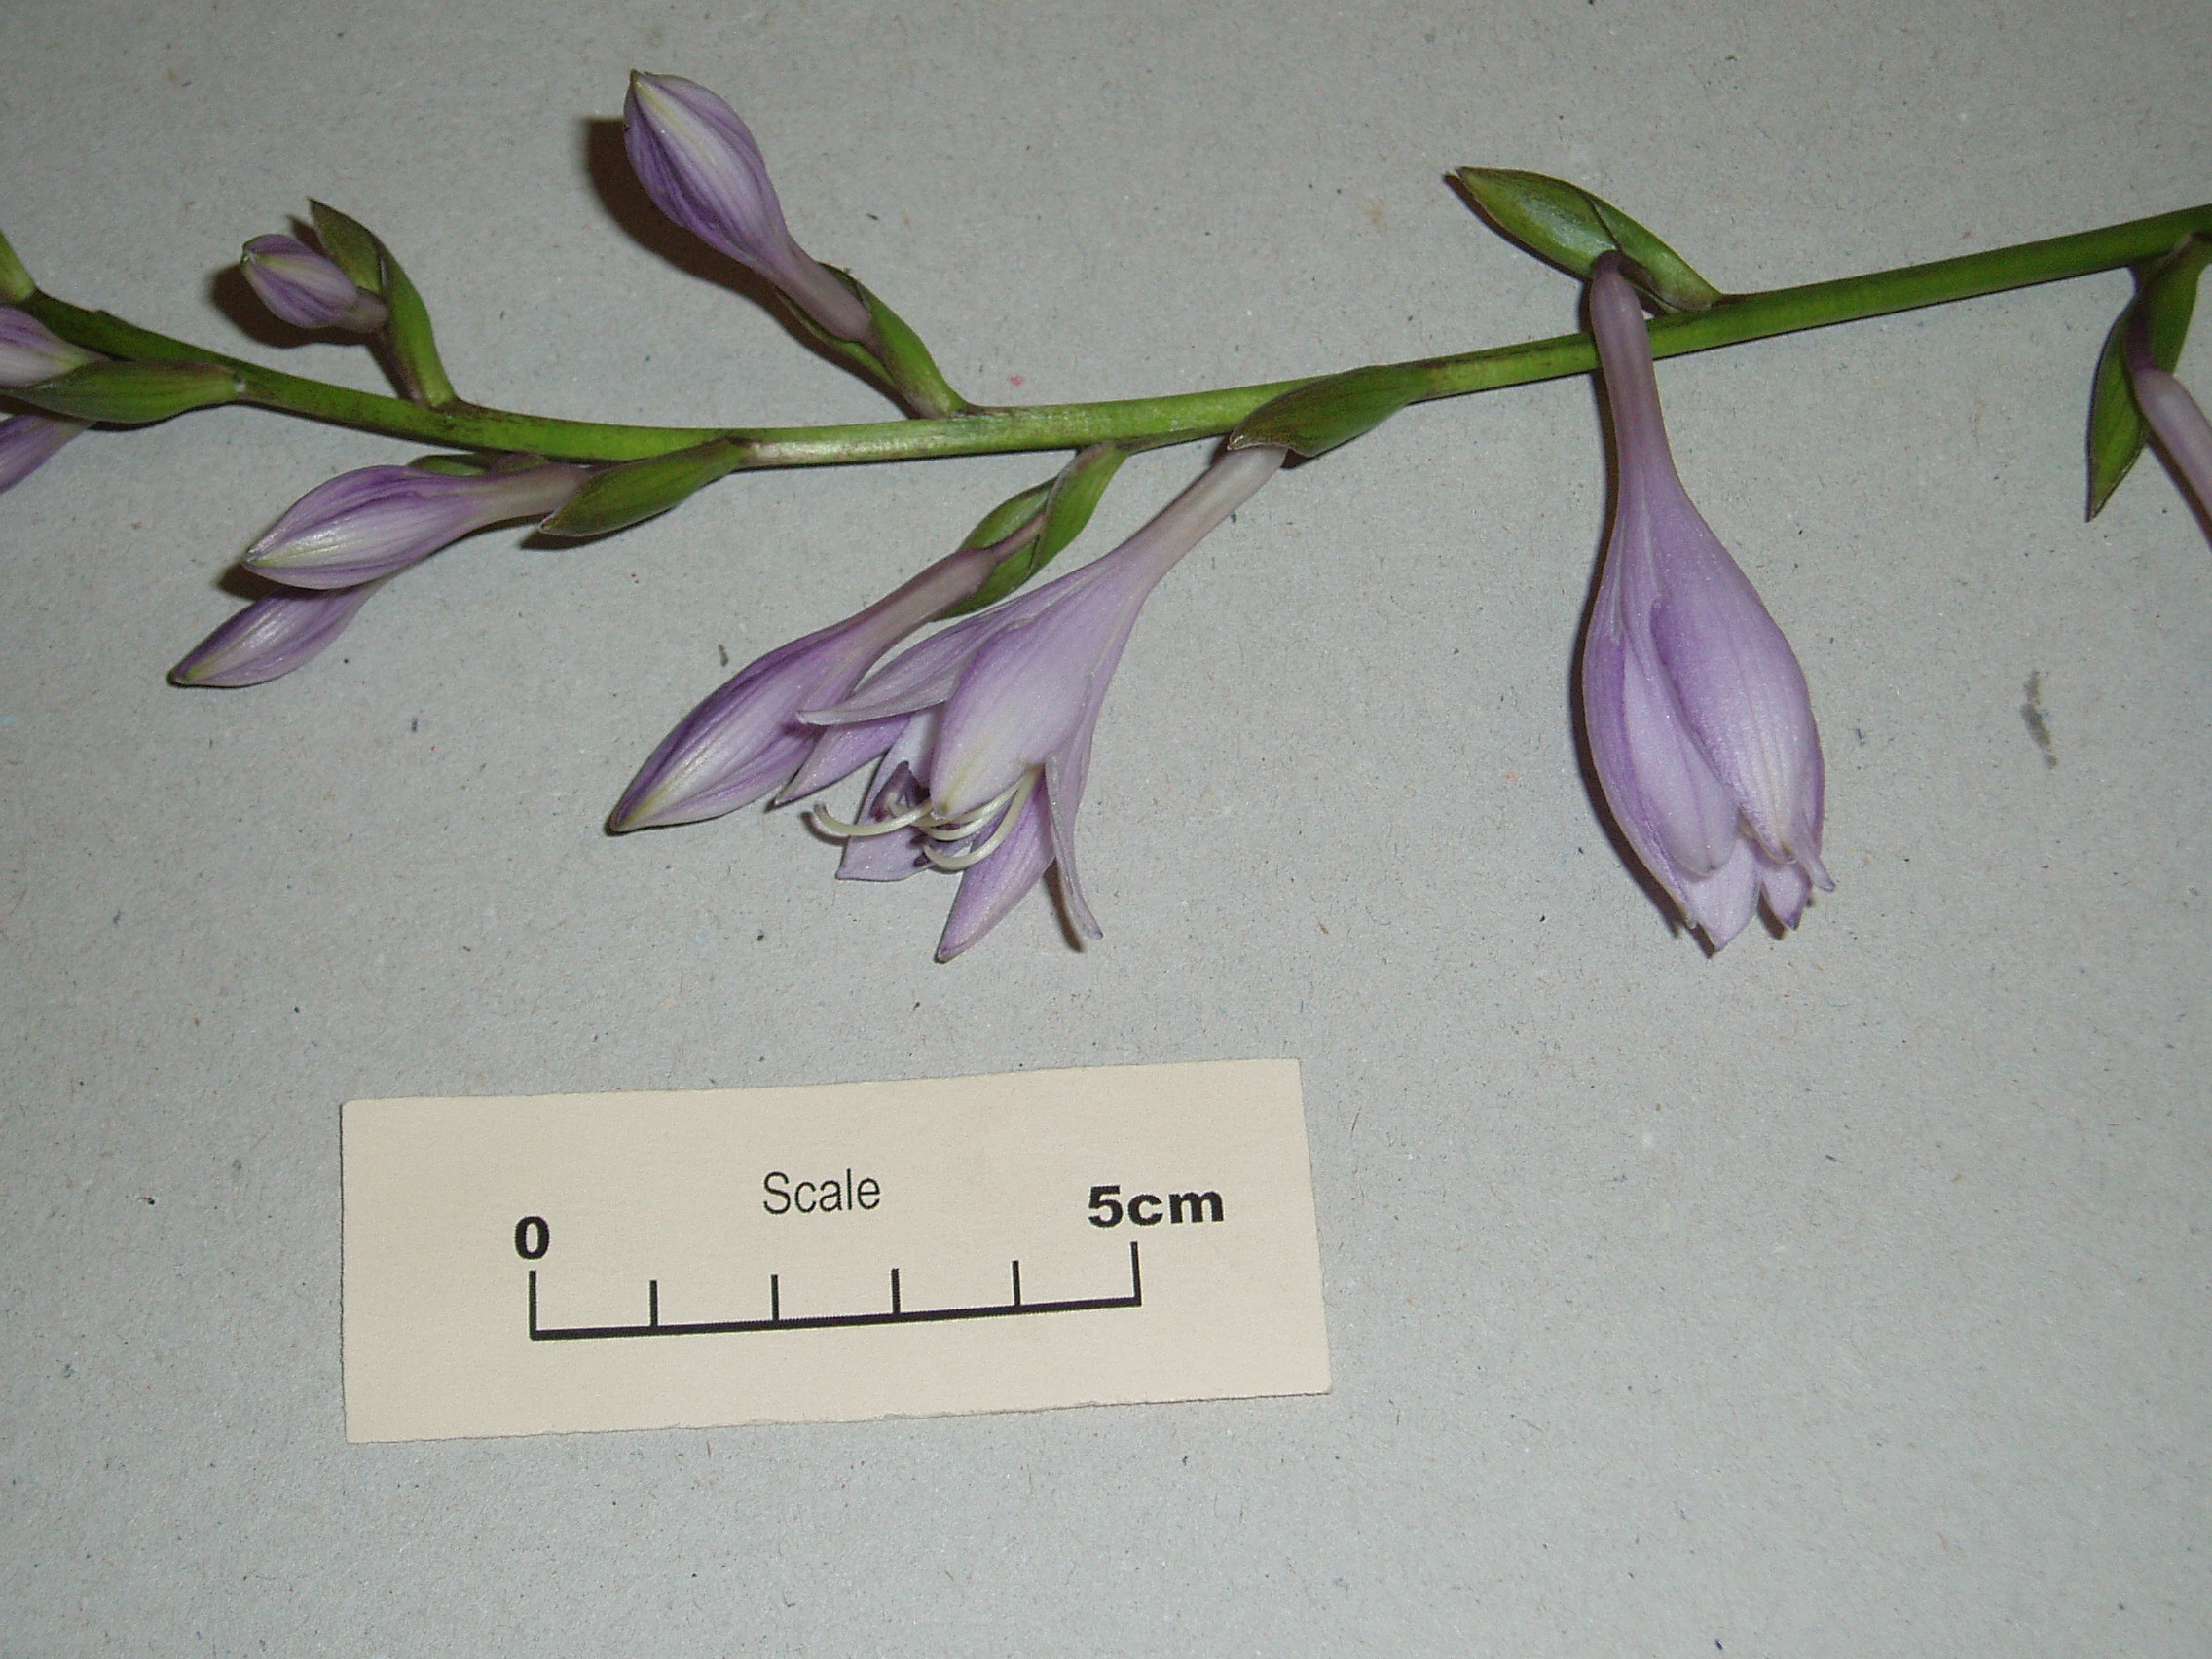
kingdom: Plantae
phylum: Tracheophyta
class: Liliopsida
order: Asparagales
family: Asparagaceae
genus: Hosta
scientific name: Hosta
